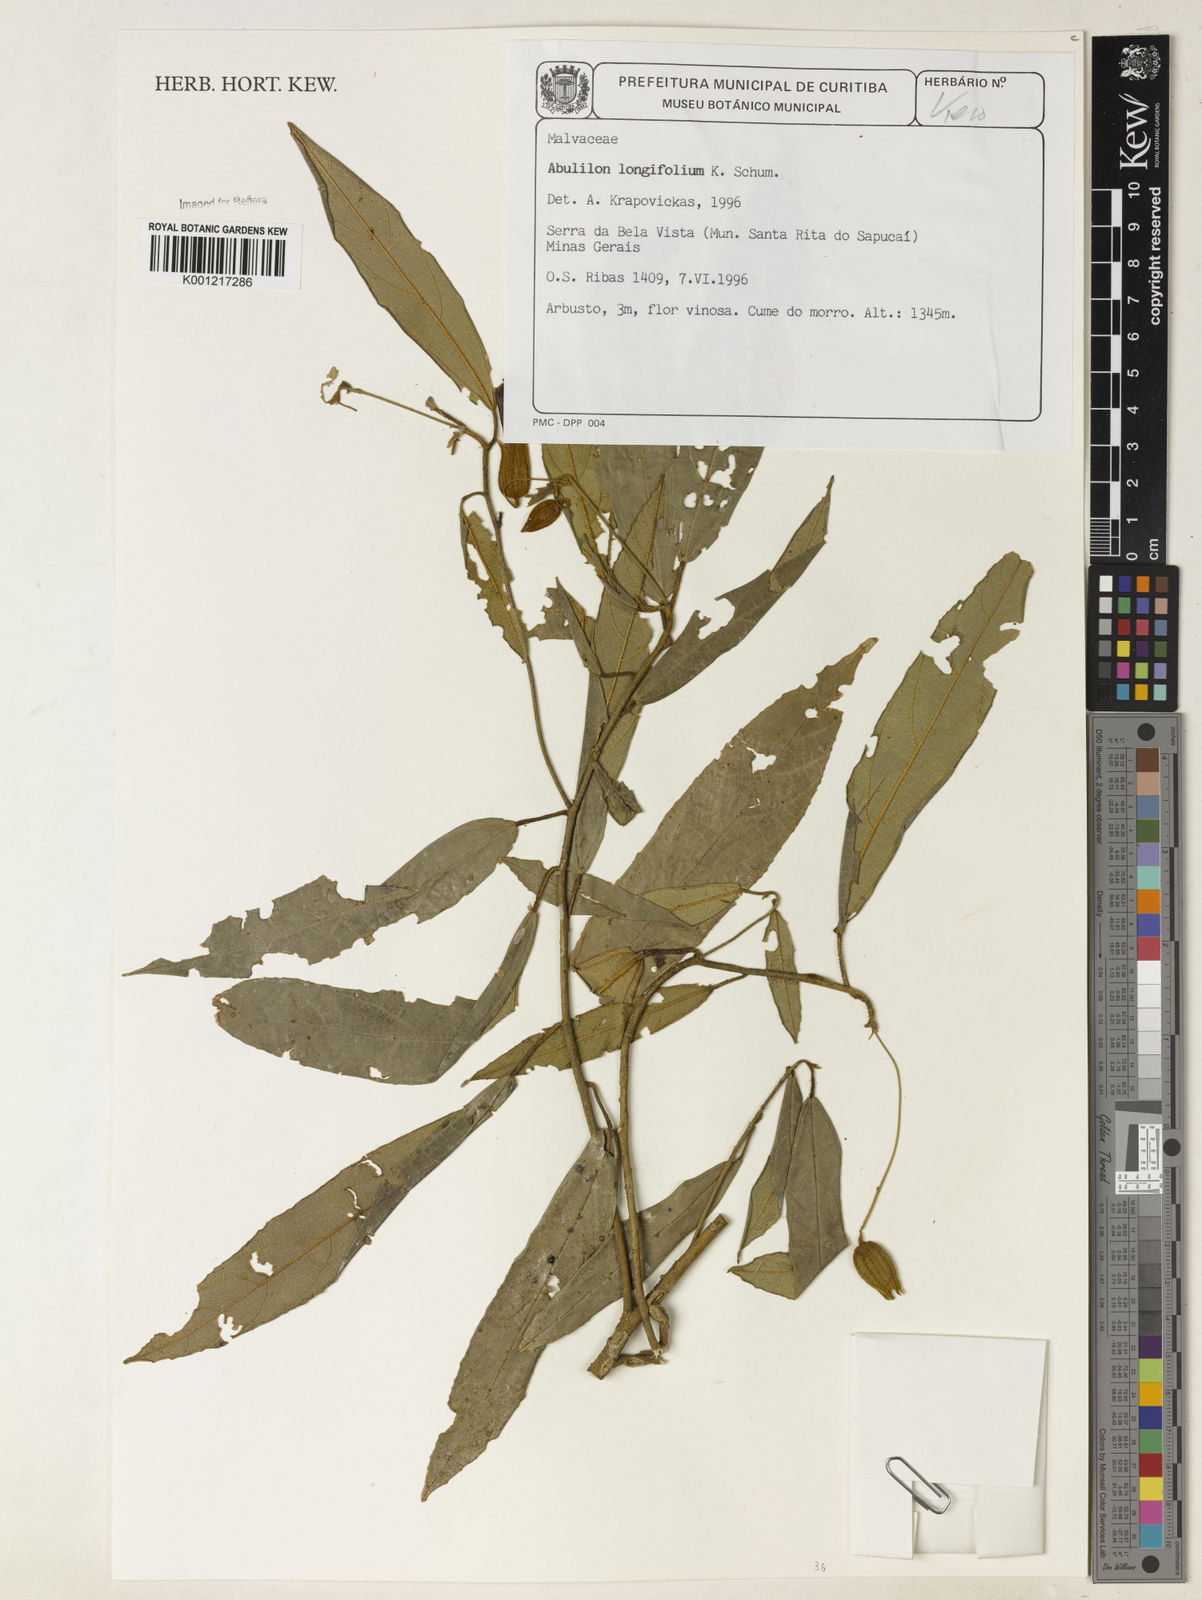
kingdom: Plantae
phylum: Tracheophyta
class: Magnoliopsida
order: Malvales
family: Malvaceae
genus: Callianthe
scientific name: Callianthe longifolia
